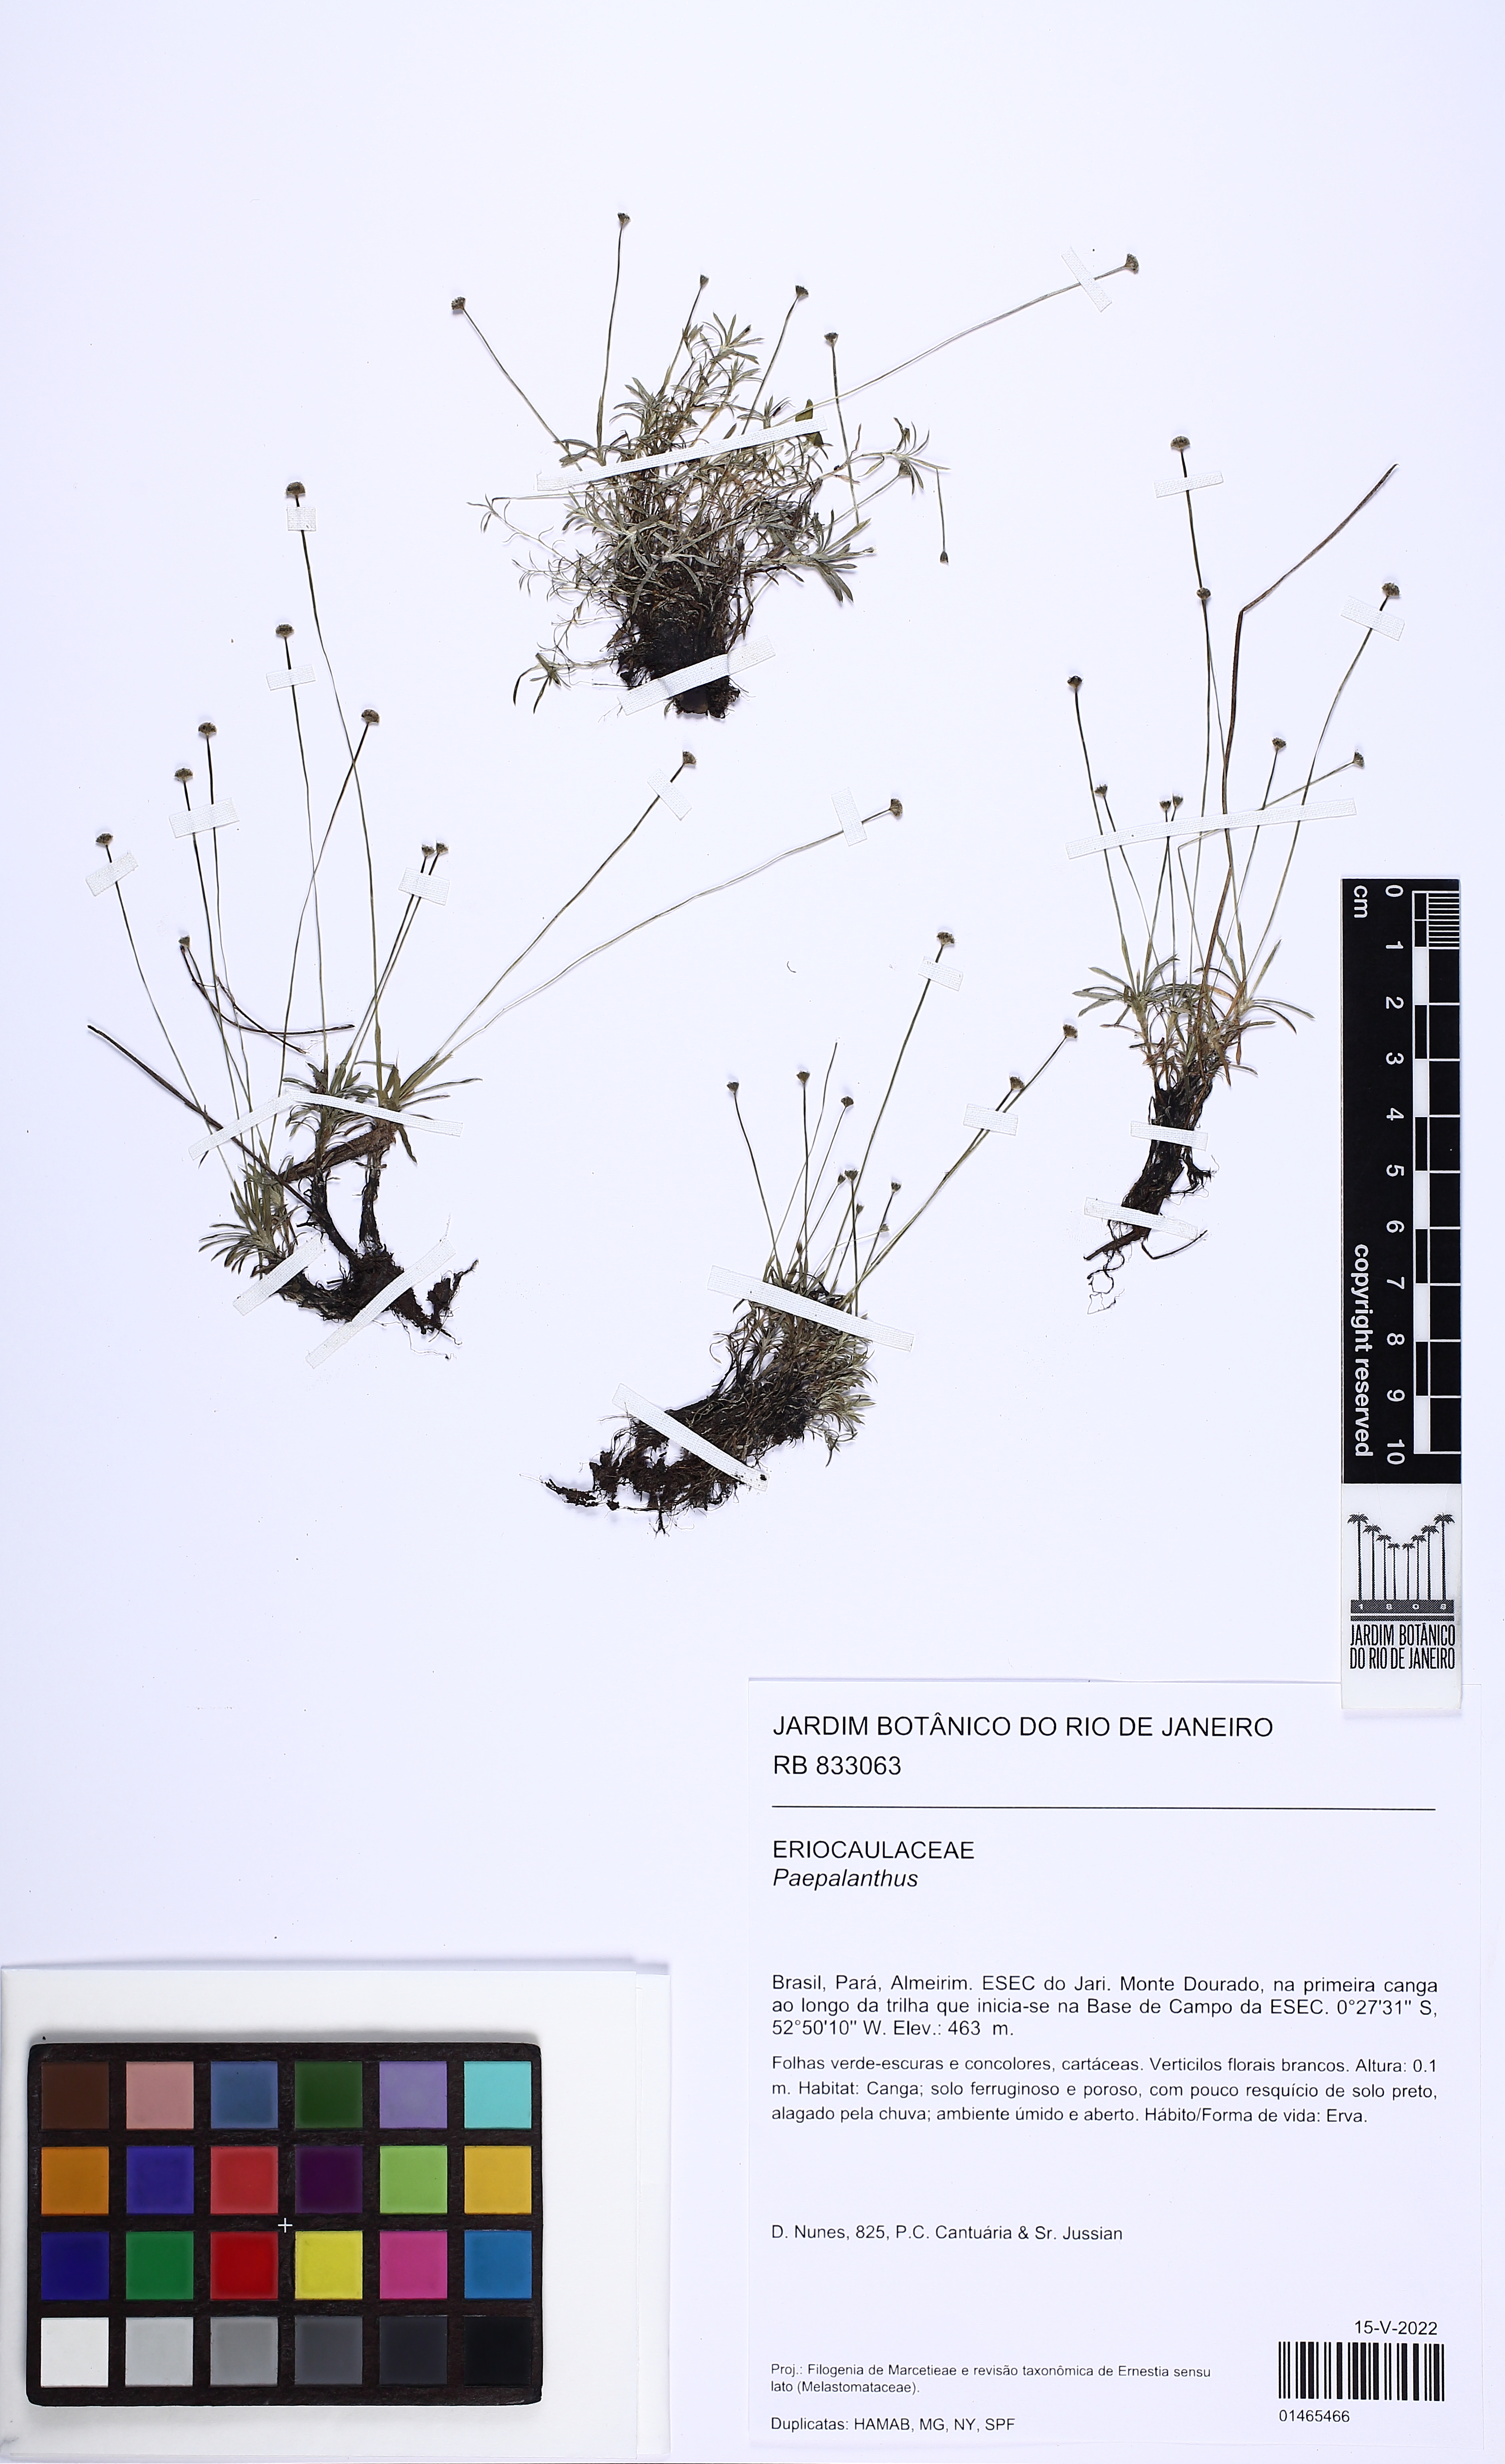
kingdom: Plantae
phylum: Tracheophyta
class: Liliopsida
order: Poales
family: Eriocaulaceae
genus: Paepalanthus
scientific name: Paepalanthus
